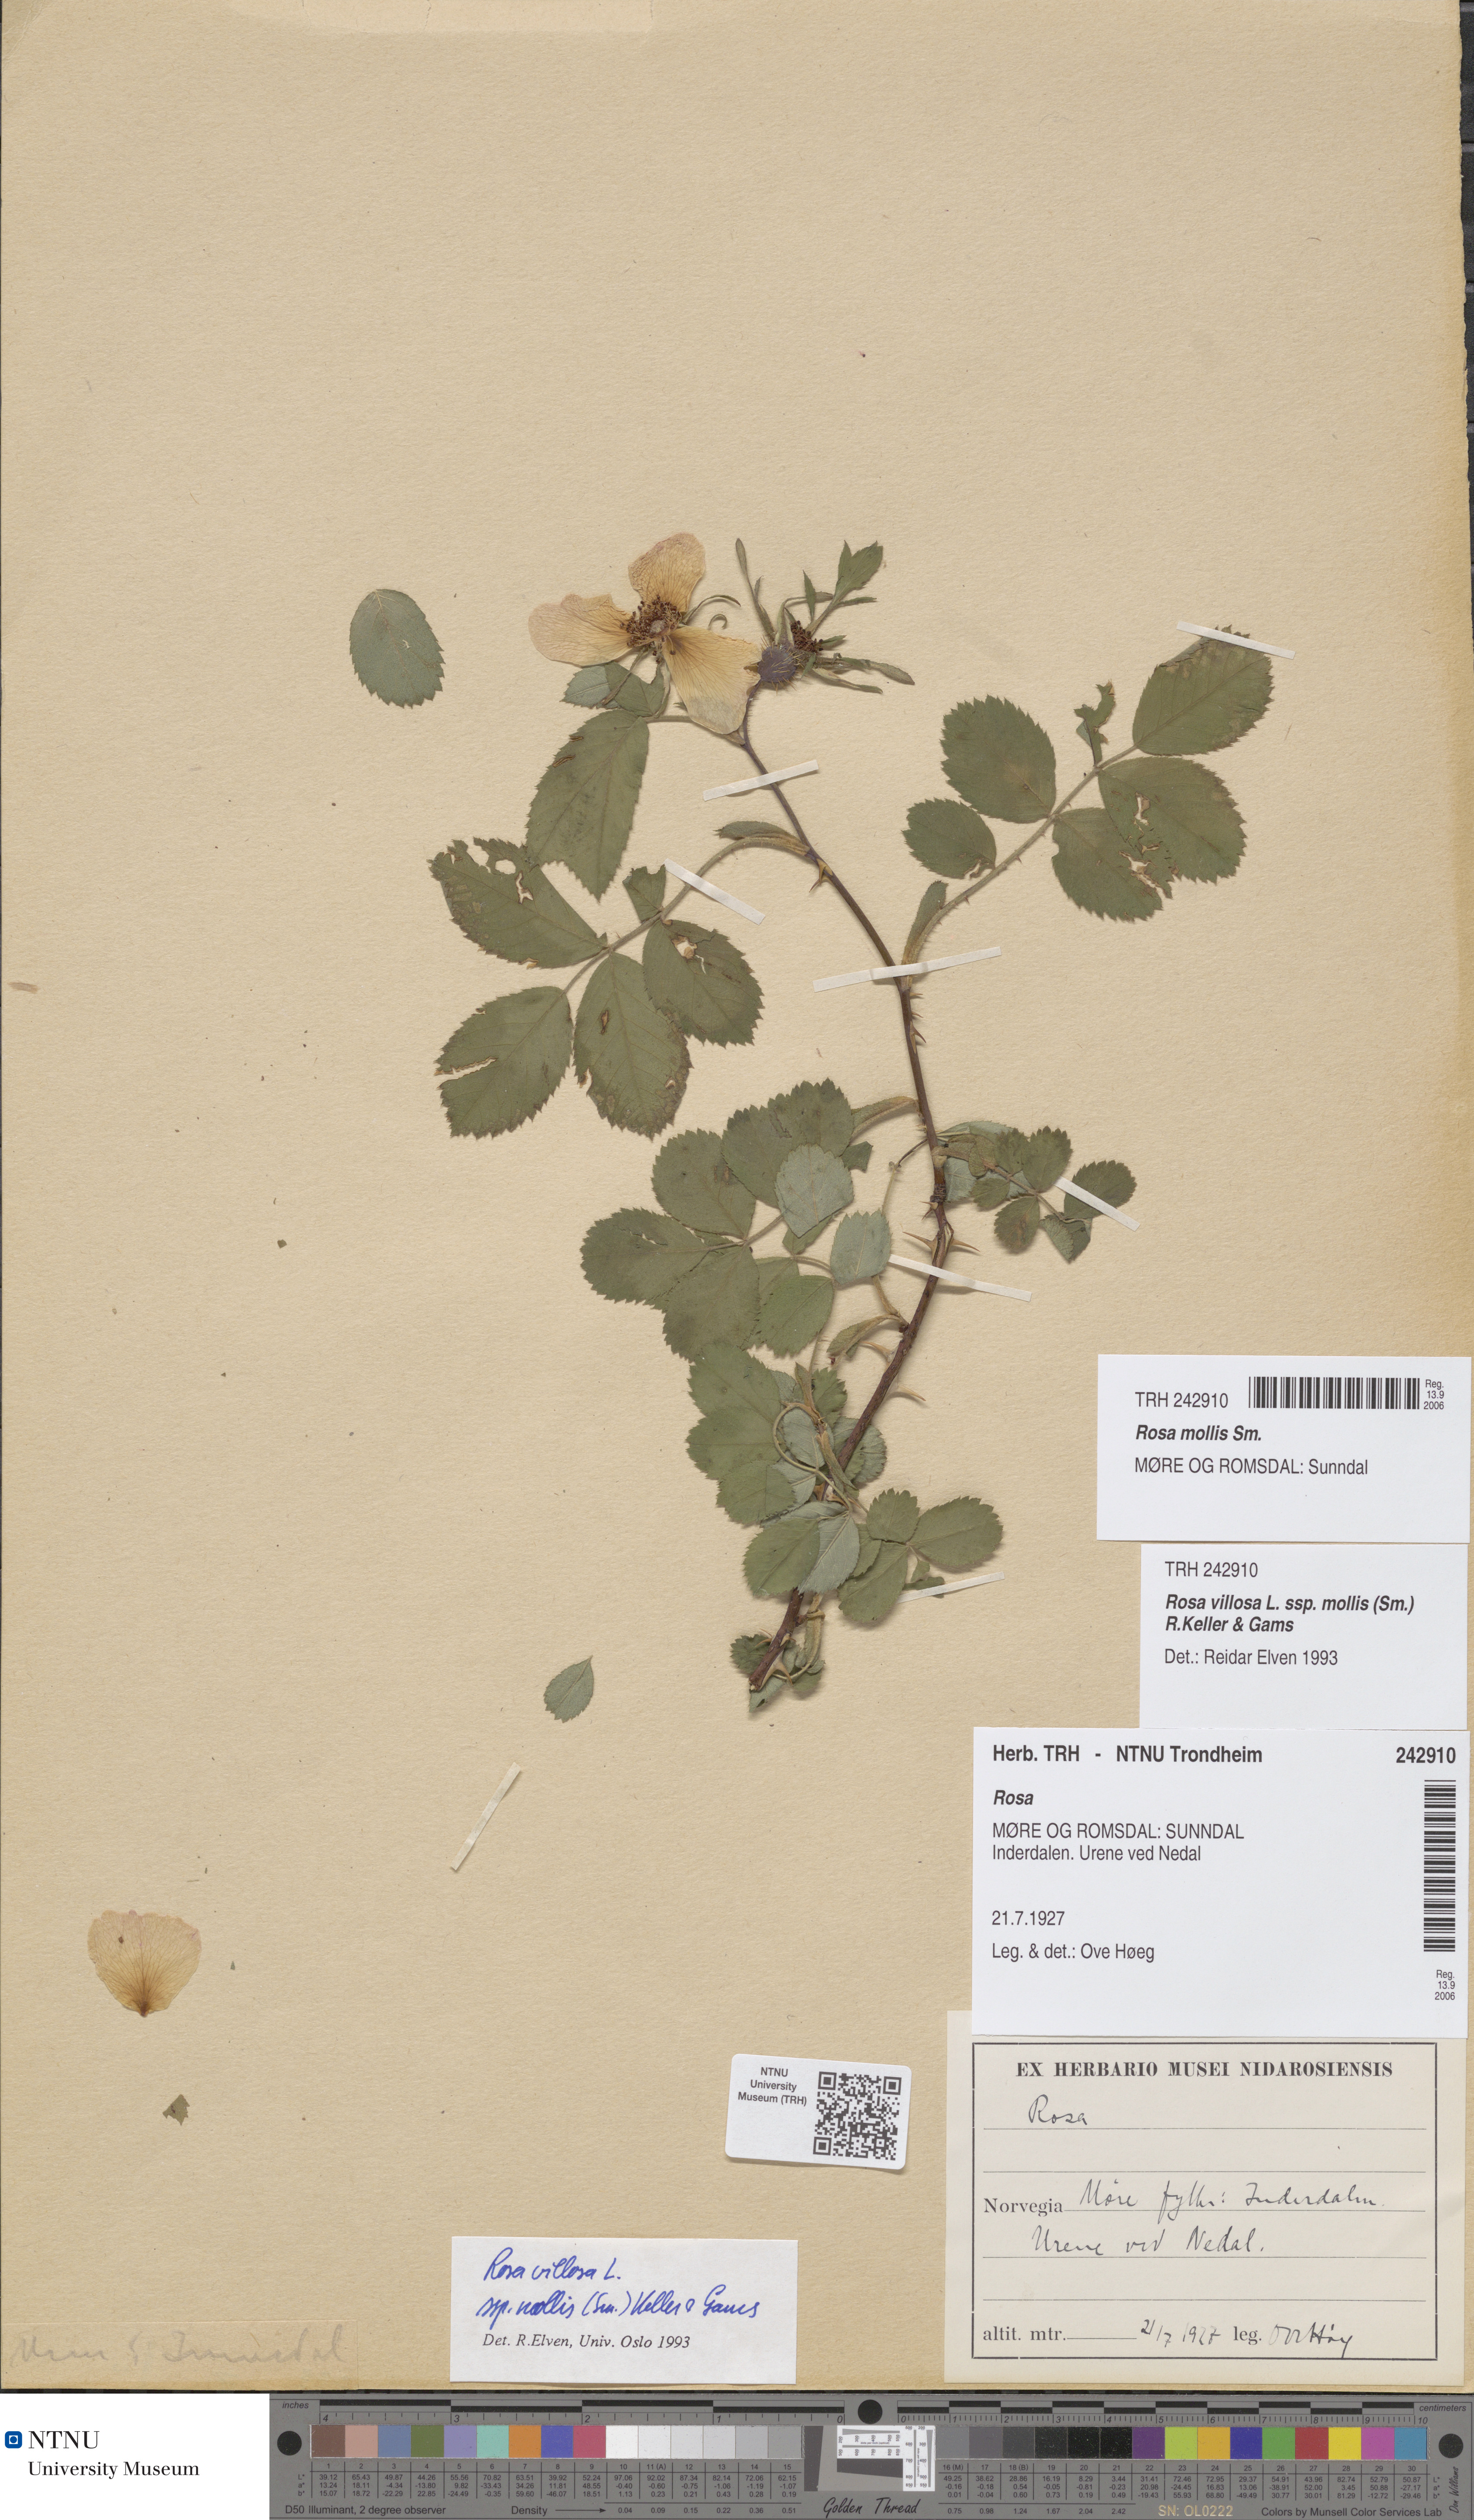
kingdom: Plantae
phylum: Tracheophyta
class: Magnoliopsida
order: Rosales
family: Rosaceae
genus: Rosa
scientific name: Rosa mollis
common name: Rose
